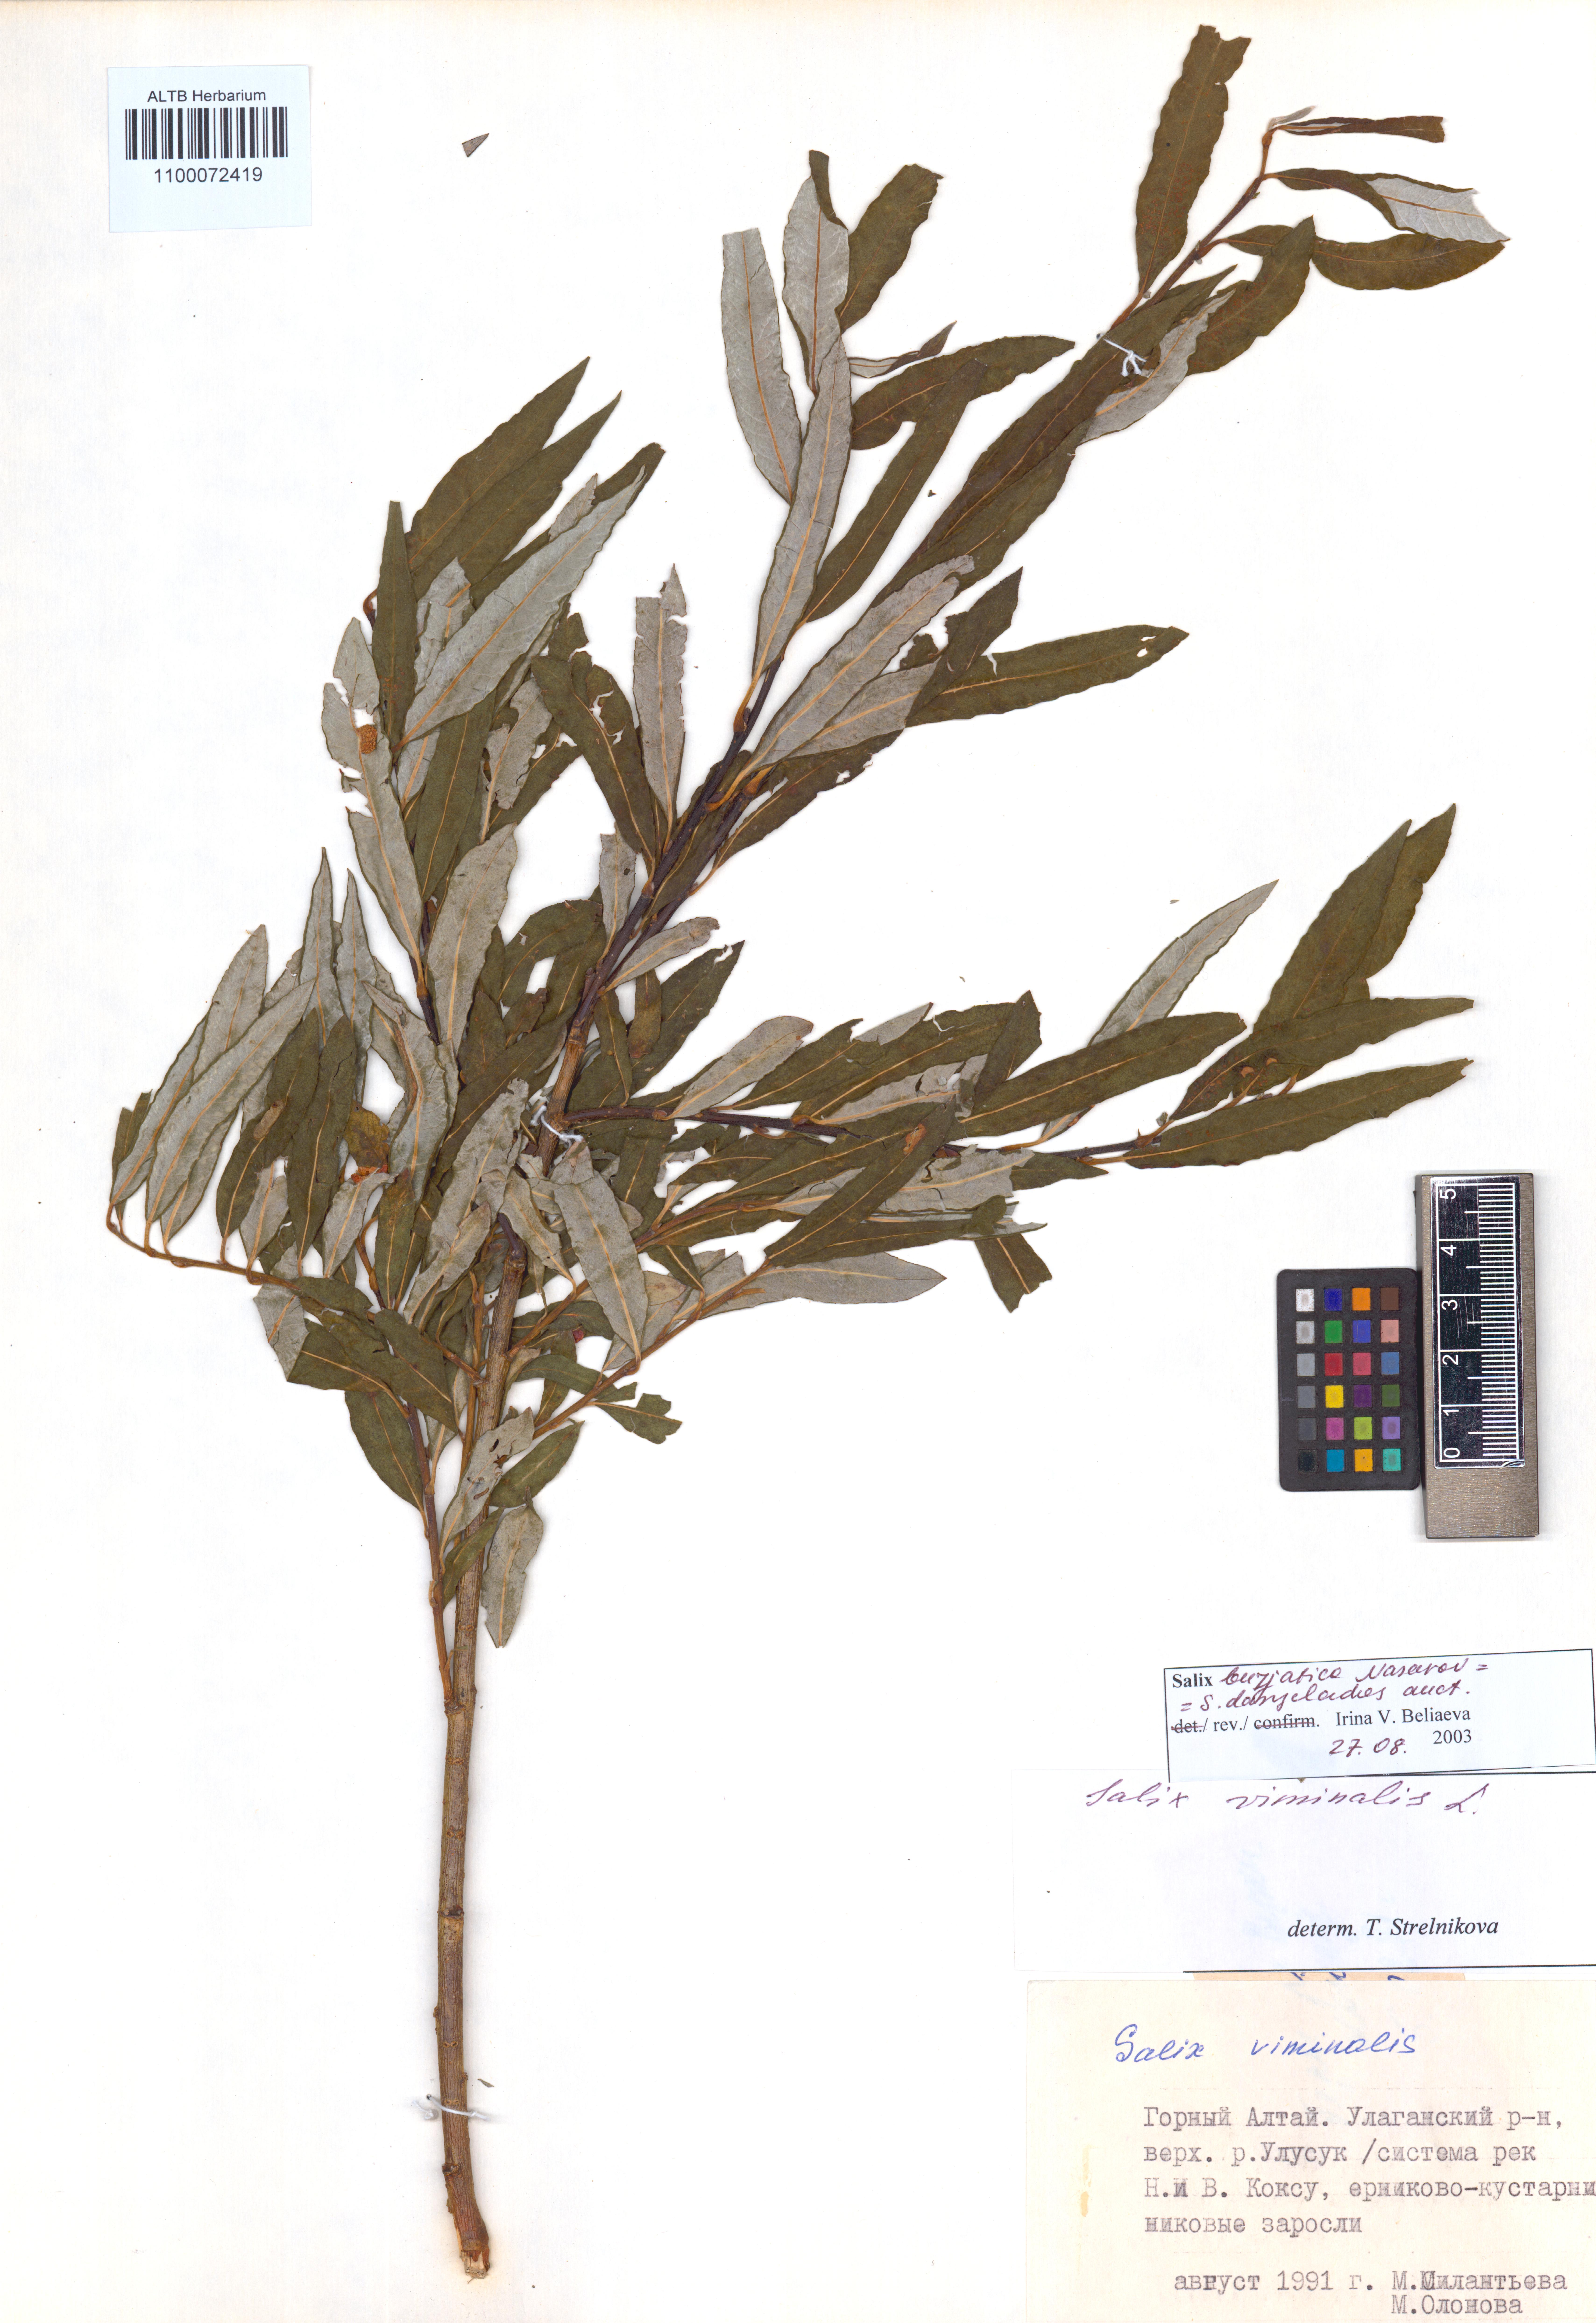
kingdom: Plantae
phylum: Tracheophyta
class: Magnoliopsida
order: Malpighiales
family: Salicaceae
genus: Salix
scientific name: Salix gmelinii
